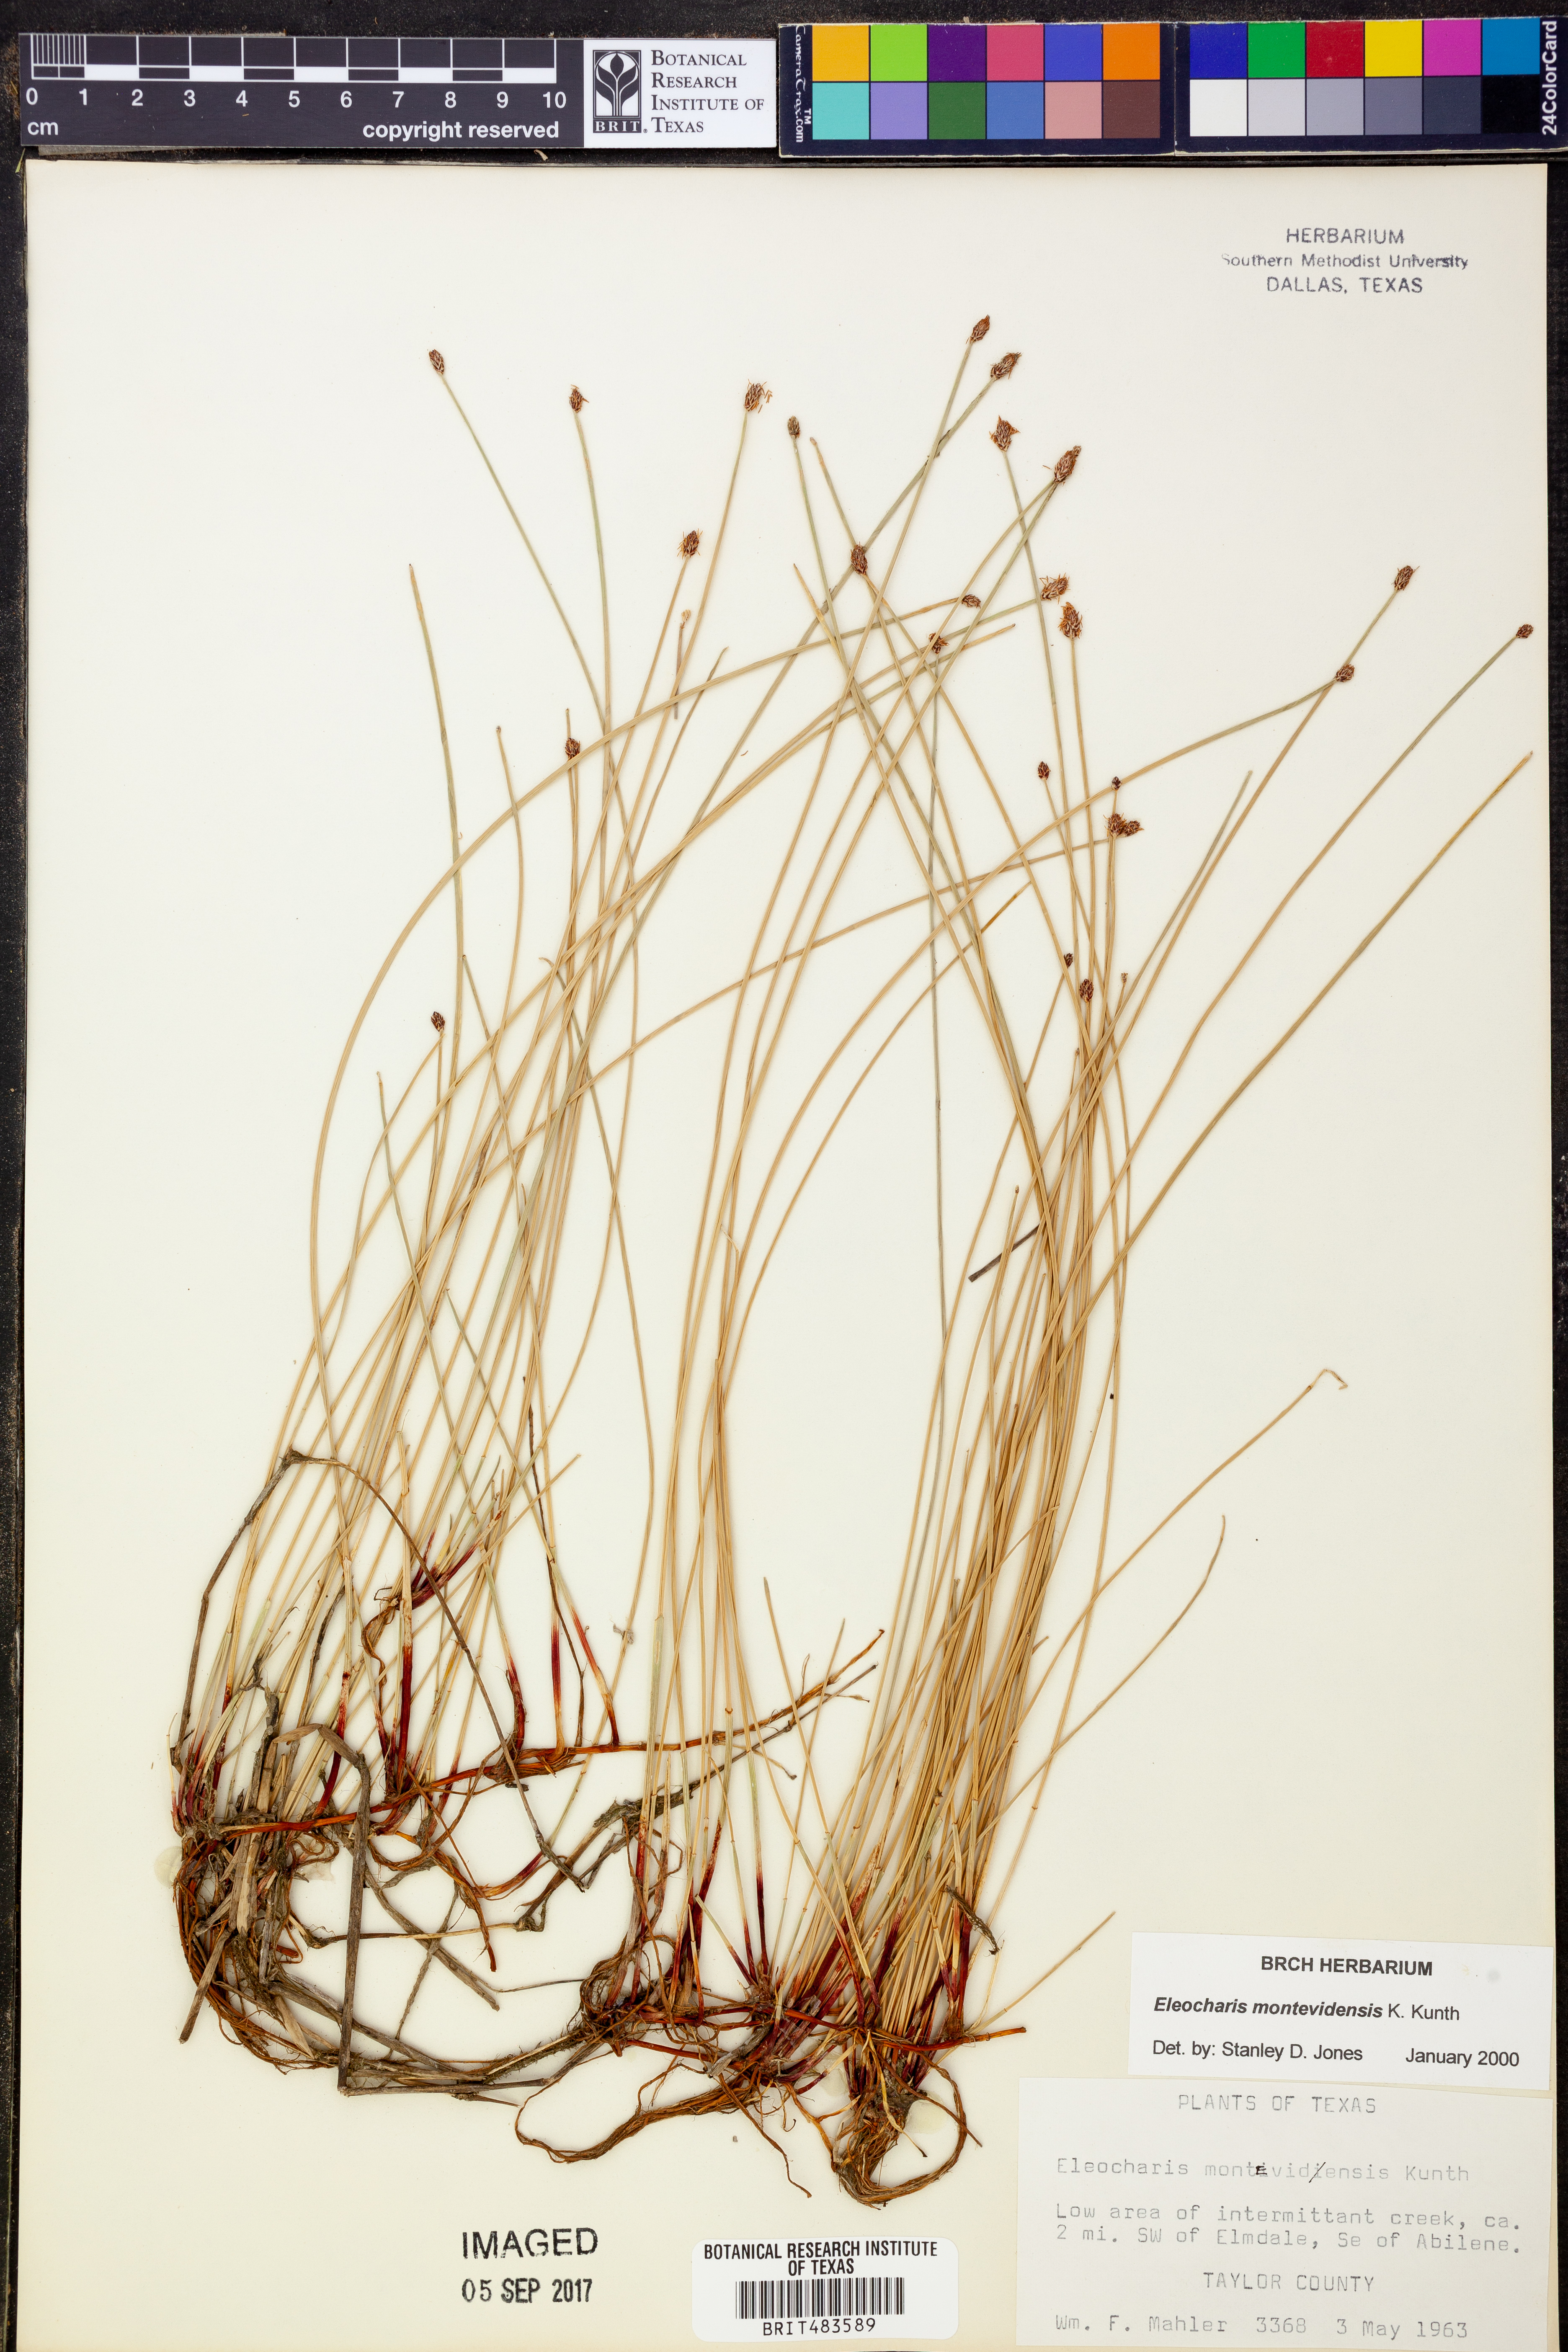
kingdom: Plantae
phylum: Tracheophyta
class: Liliopsida
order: Poales
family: Cyperaceae
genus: Eleocharis
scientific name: Eleocharis montevidensis
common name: Sand spike-rush
